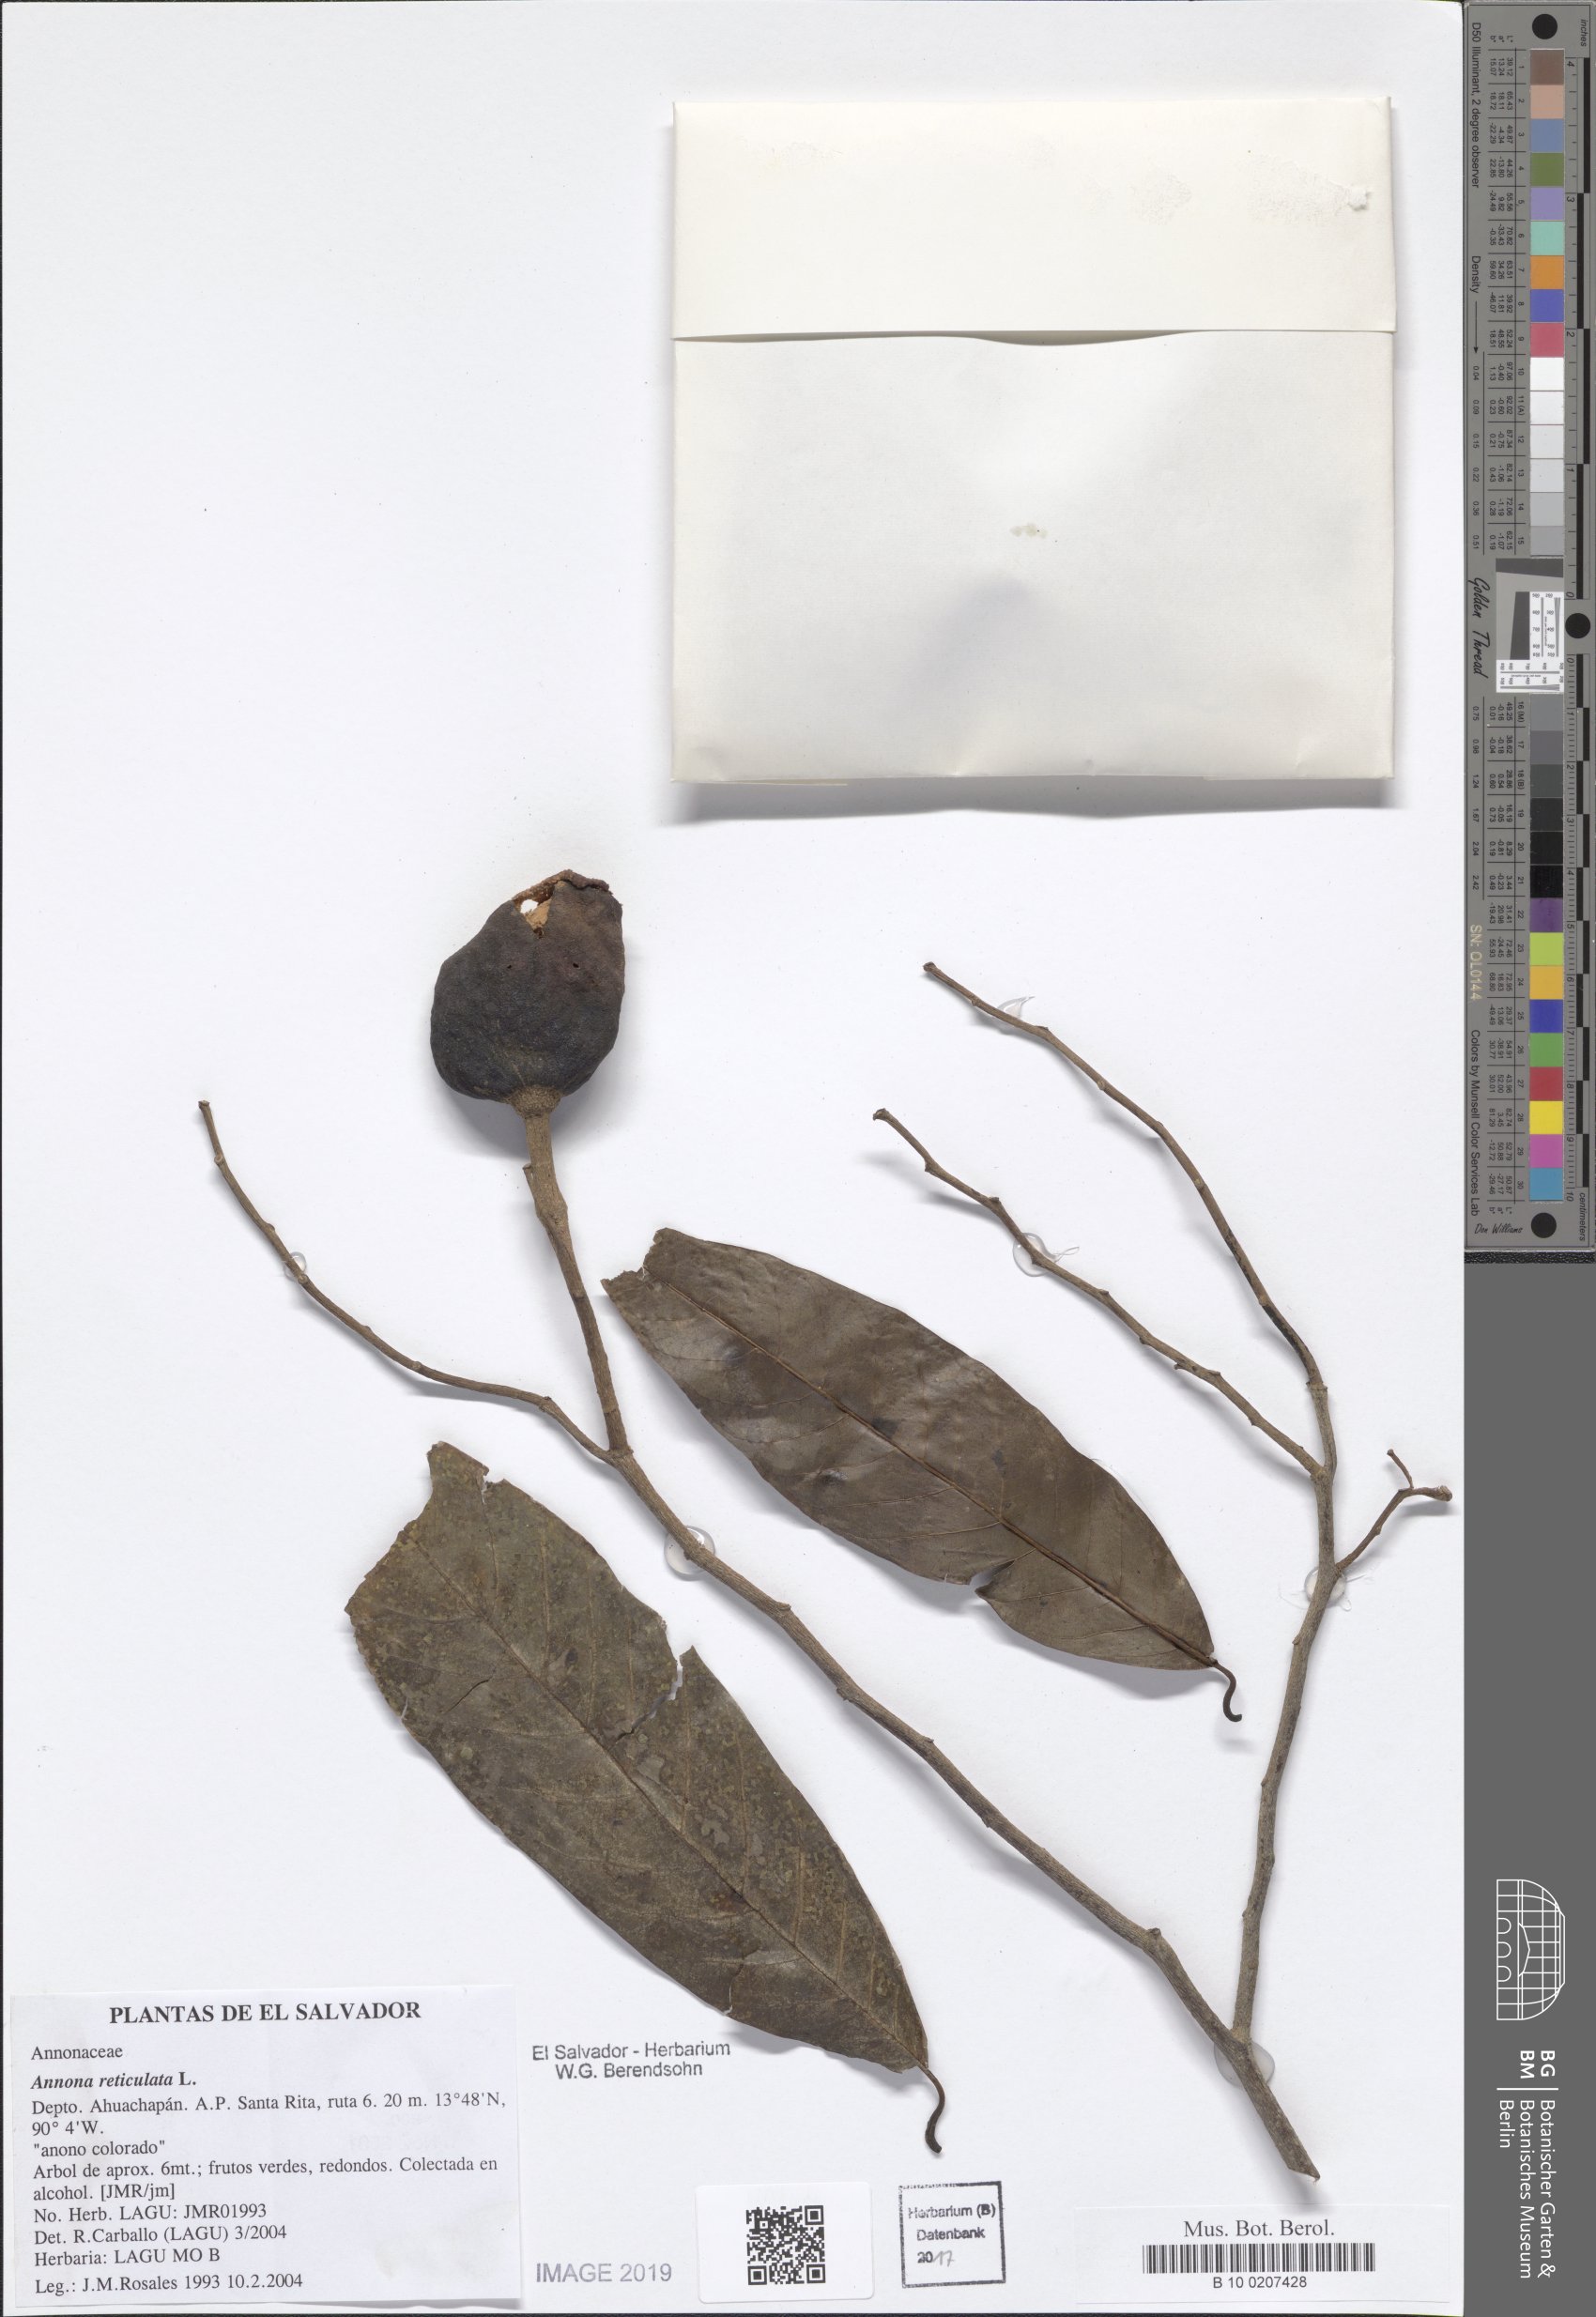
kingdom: Plantae
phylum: Tracheophyta
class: Magnoliopsida
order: Magnoliales
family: Annonaceae
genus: Annona
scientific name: Annona reticulata
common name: Custard apple
